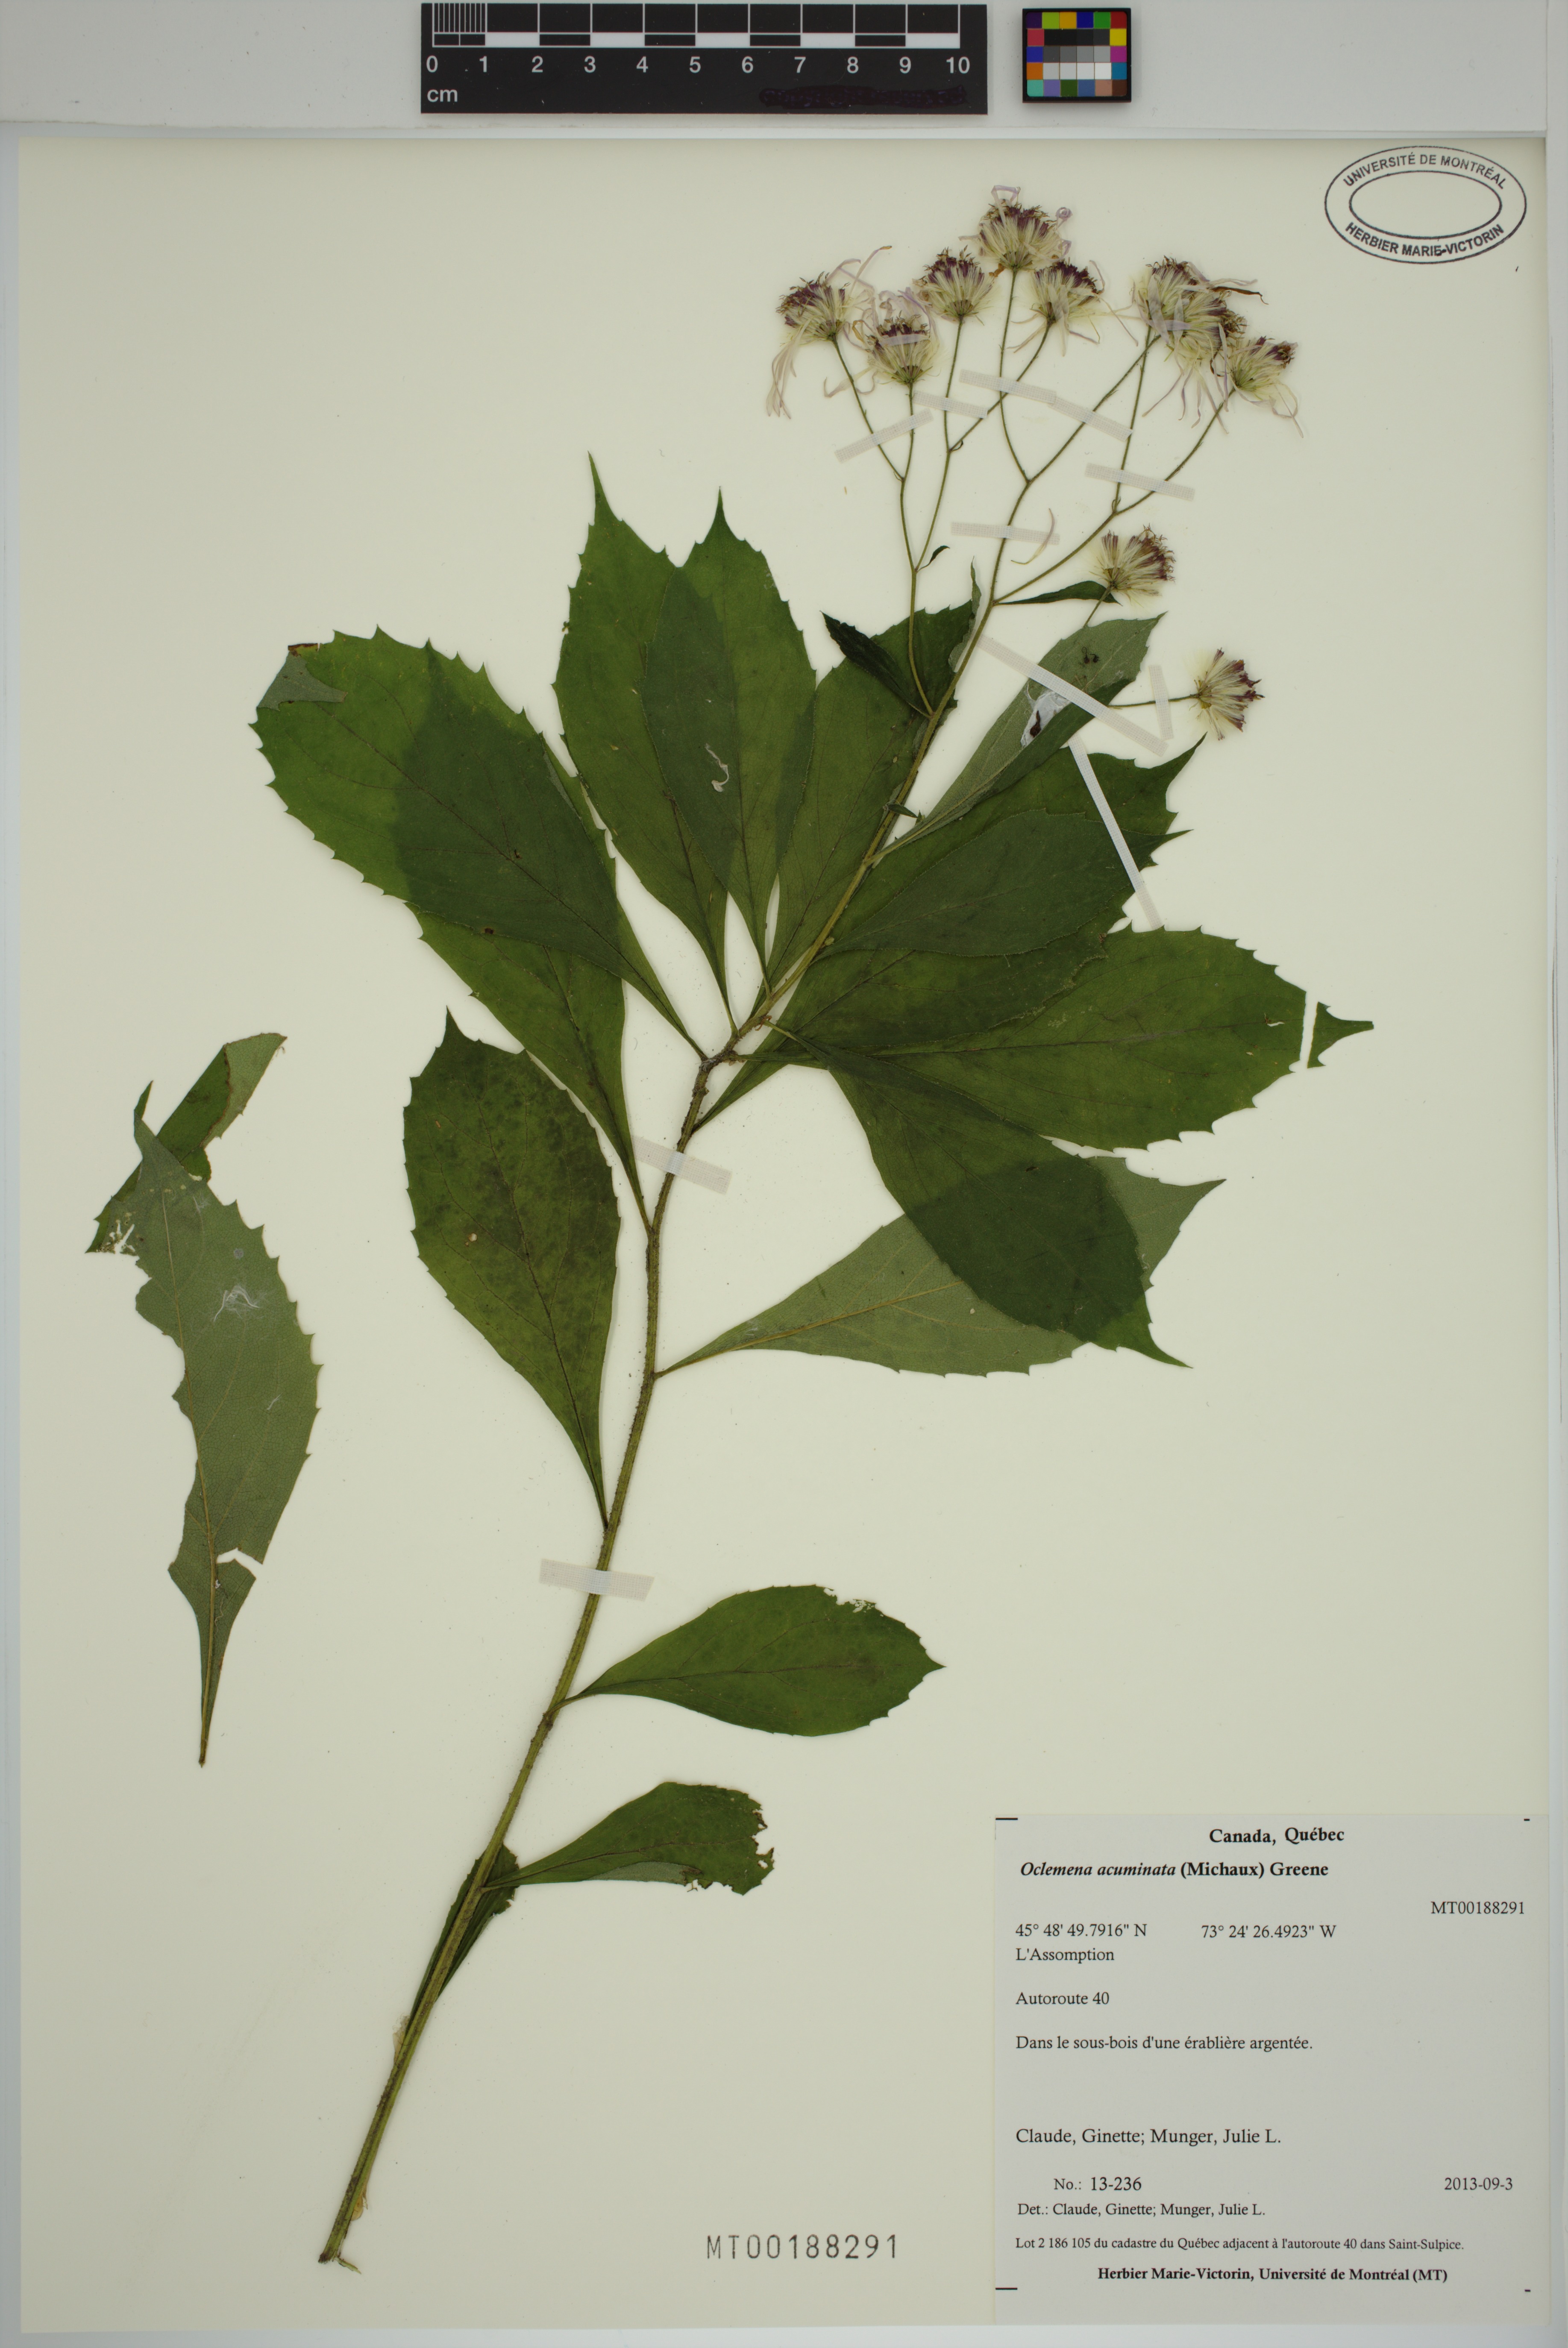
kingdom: Plantae
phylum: Tracheophyta
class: Magnoliopsida
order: Asterales
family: Asteraceae
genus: Oclemena
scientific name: Oclemena acuminata
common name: Mountain aster
